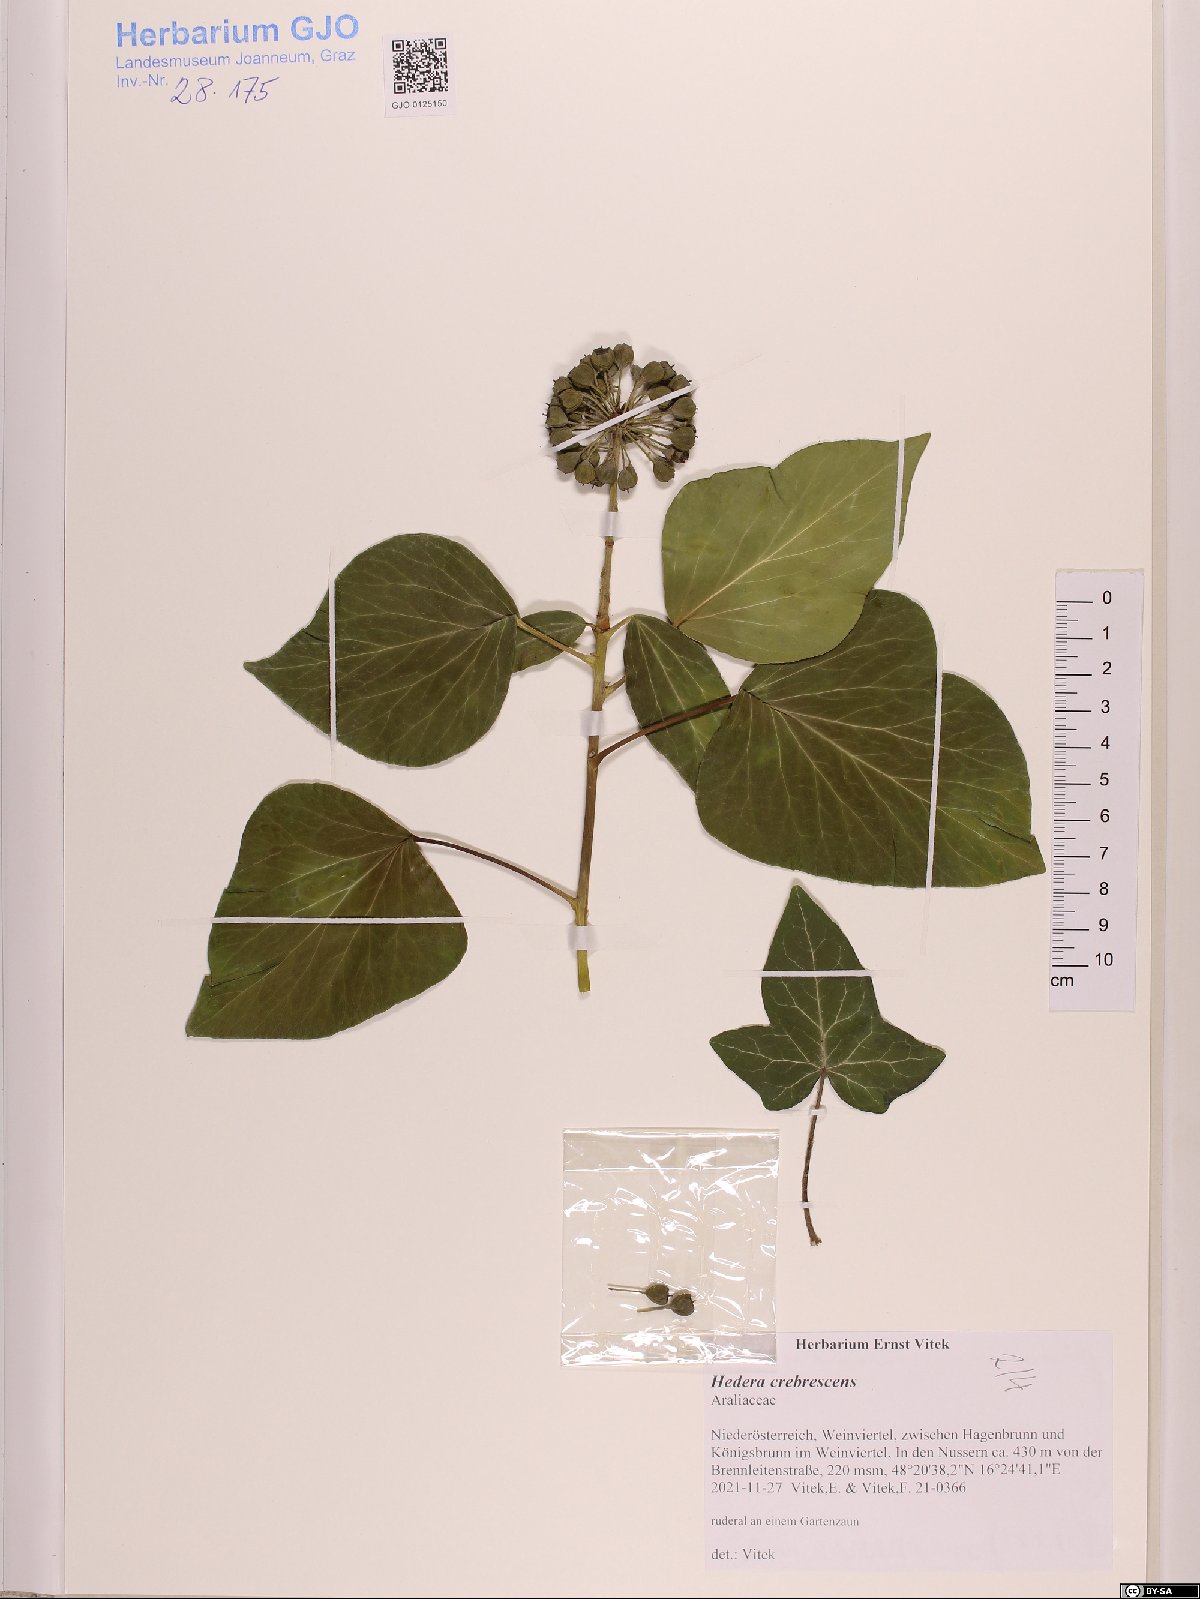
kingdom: Plantae
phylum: Tracheophyta
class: Magnoliopsida
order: Apiales
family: Araliaceae
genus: Hedera
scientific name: Hedera crebrescens
